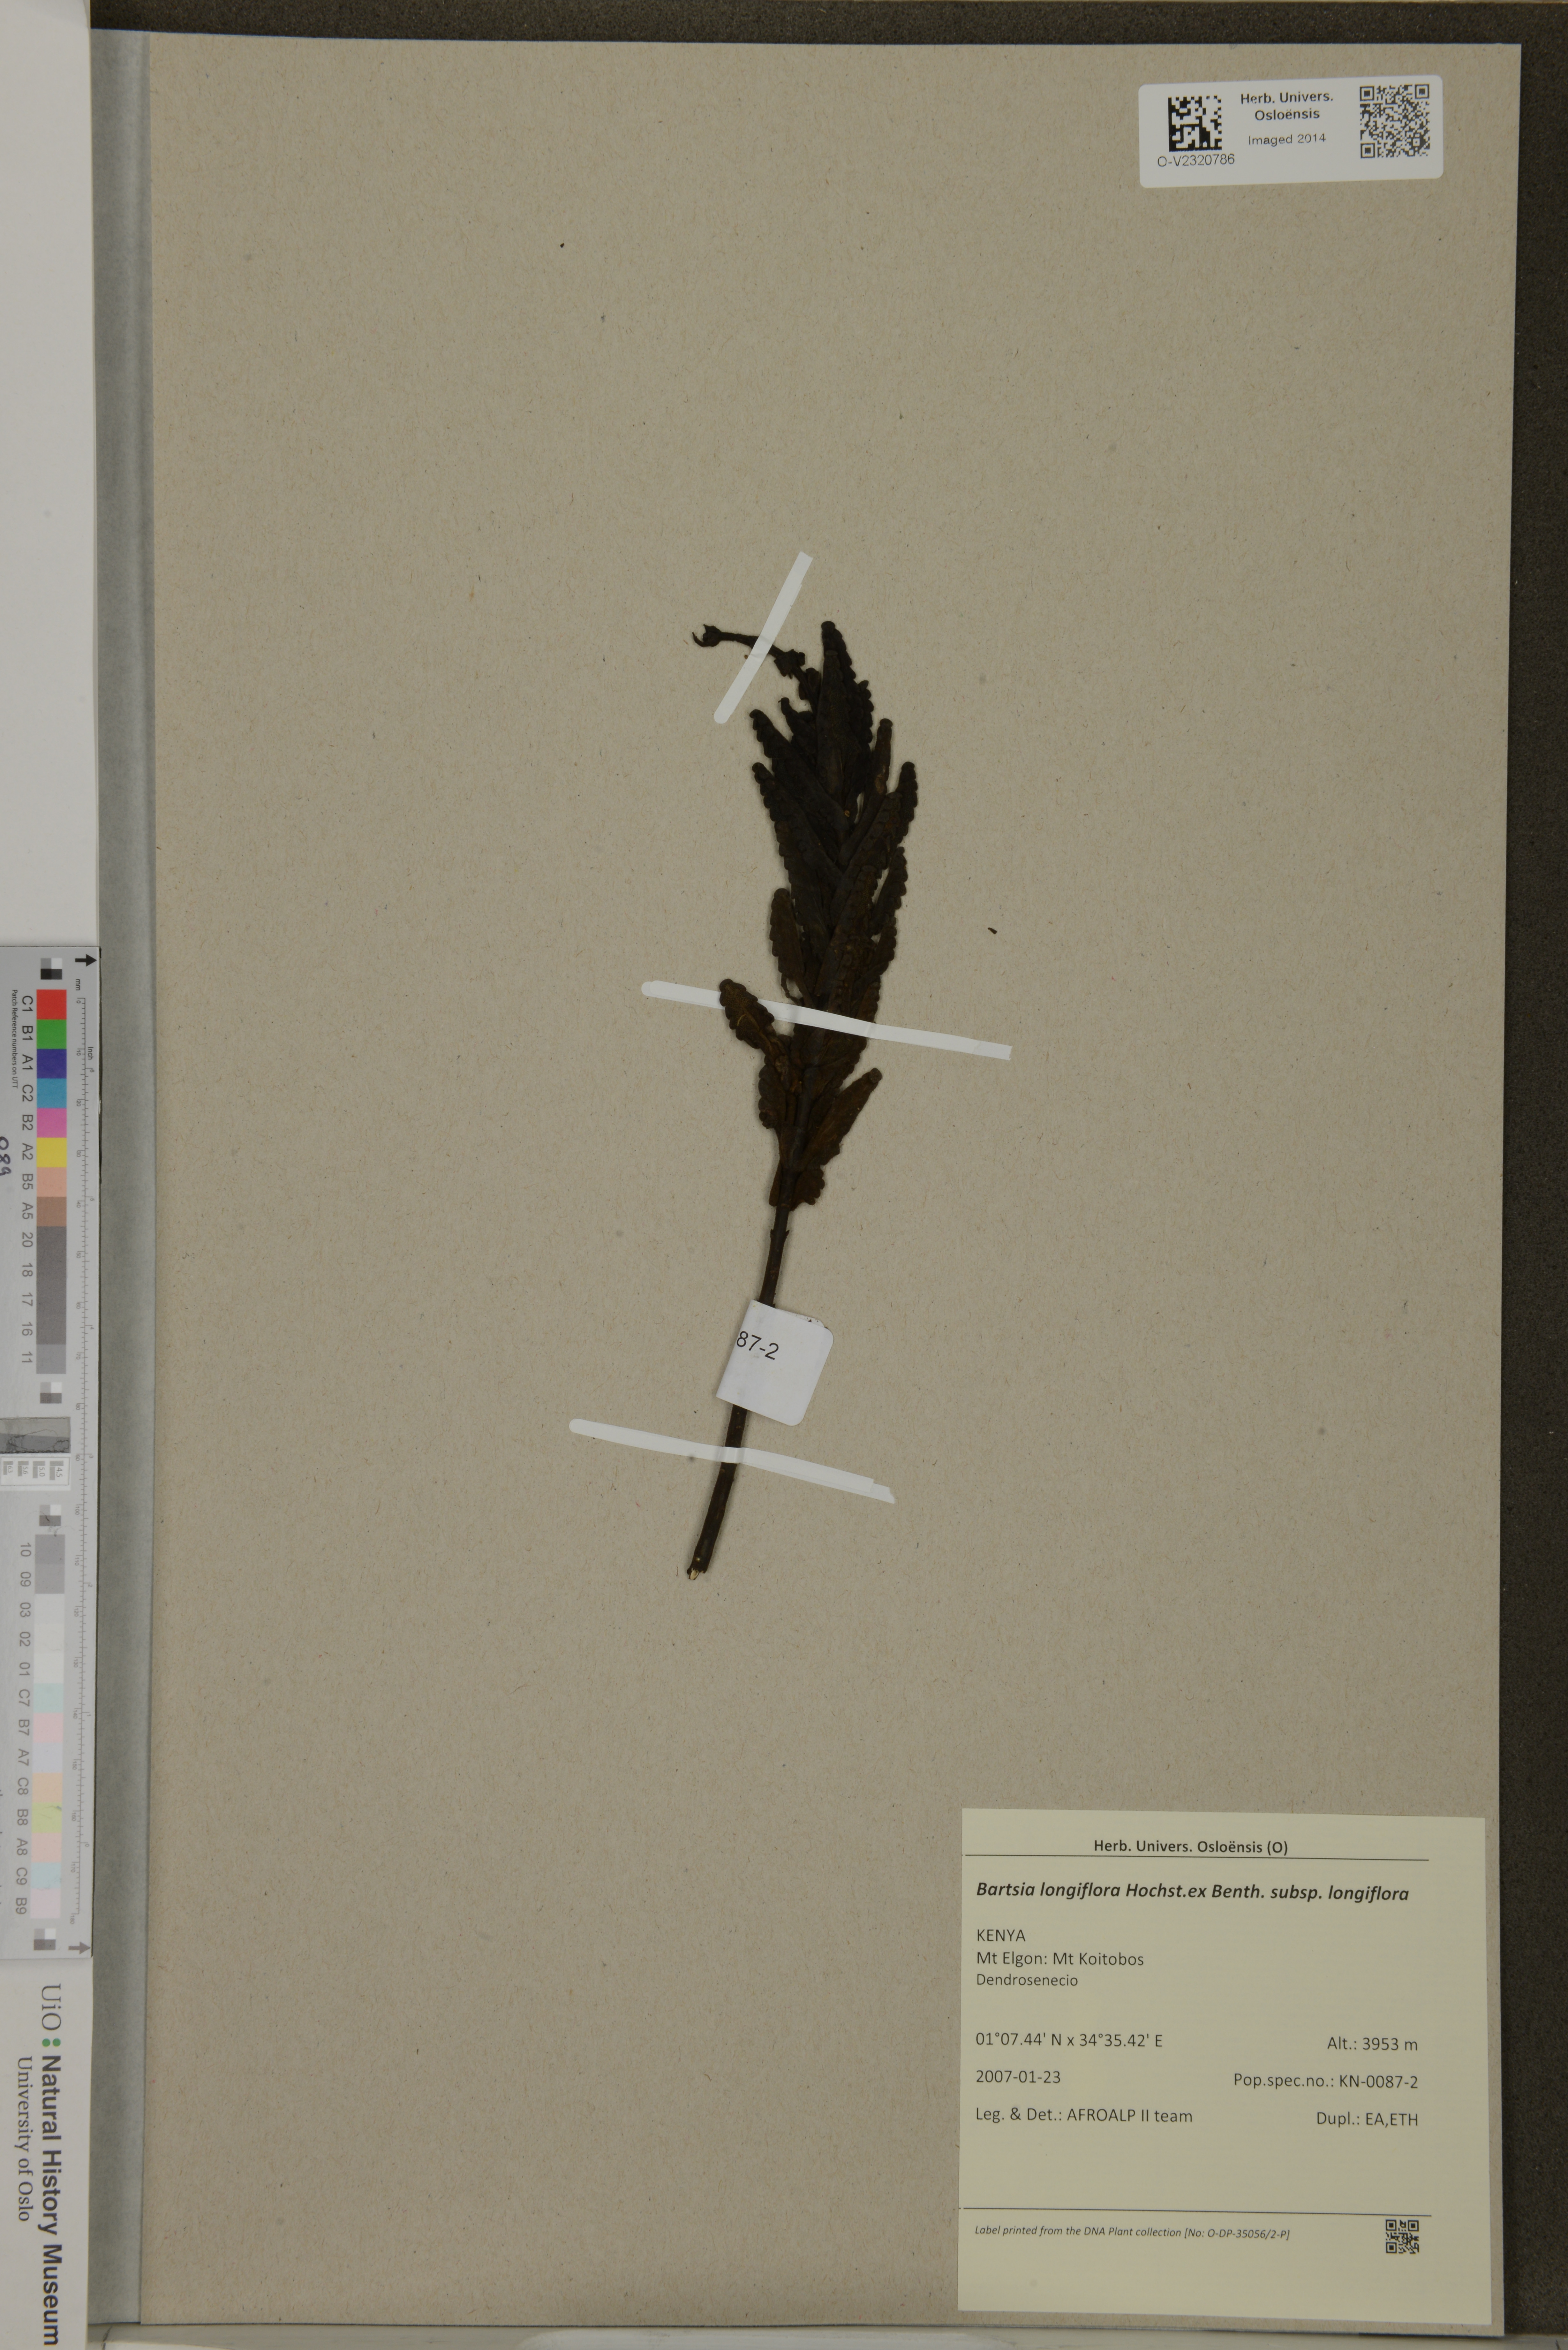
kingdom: Plantae
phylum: Tracheophyta
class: Magnoliopsida
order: Lamiales
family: Orobanchaceae
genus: Hedbergia
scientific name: Hedbergia longiflora
